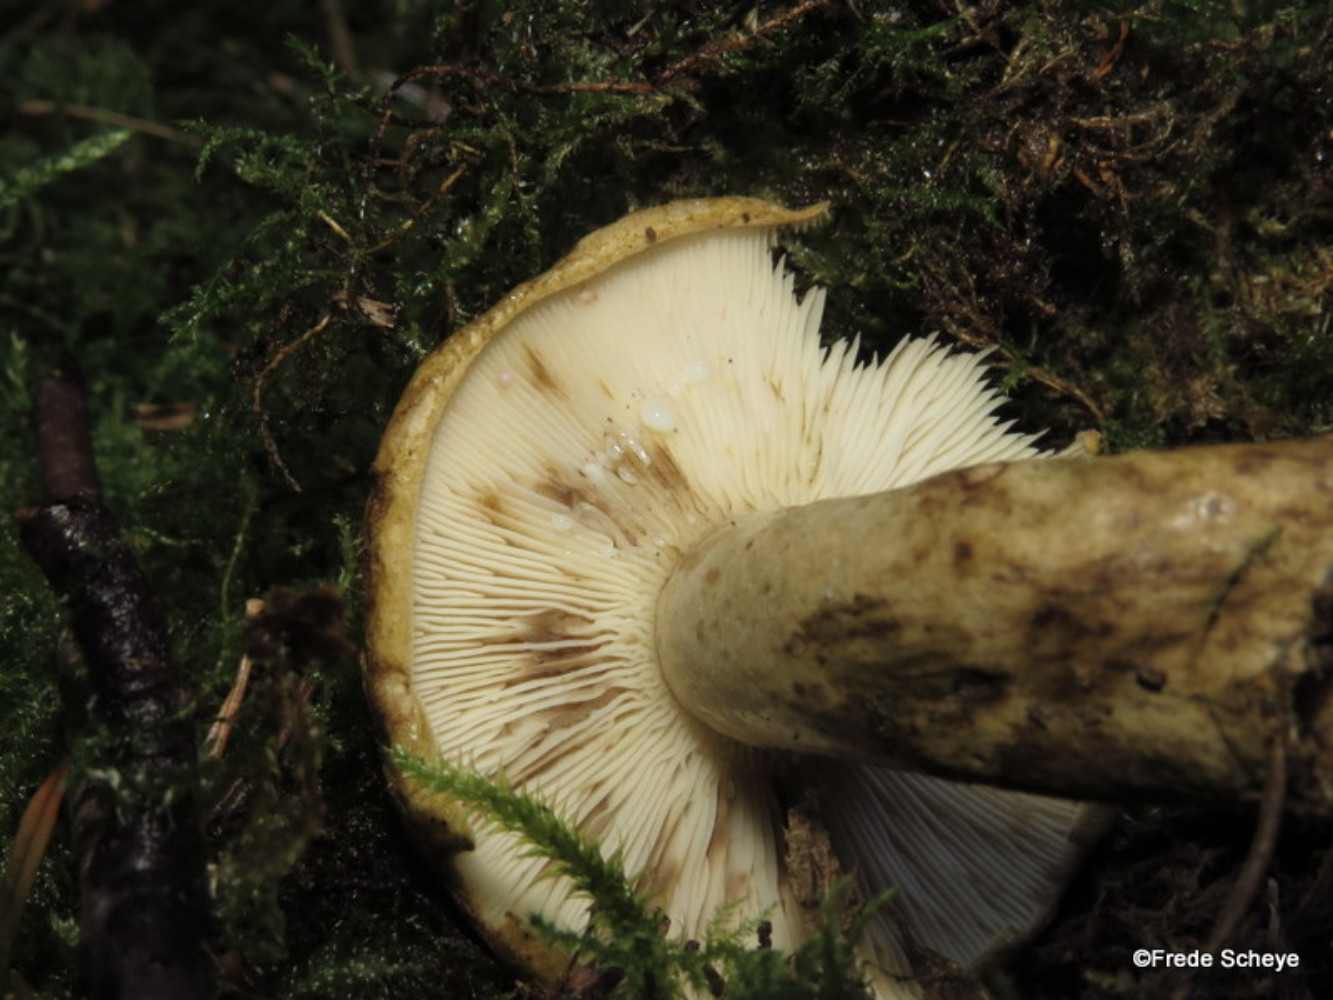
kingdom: Fungi
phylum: Basidiomycota
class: Agaricomycetes
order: Russulales
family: Russulaceae
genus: Lactarius
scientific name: Lactarius necator
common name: manddraber-mælkehat
